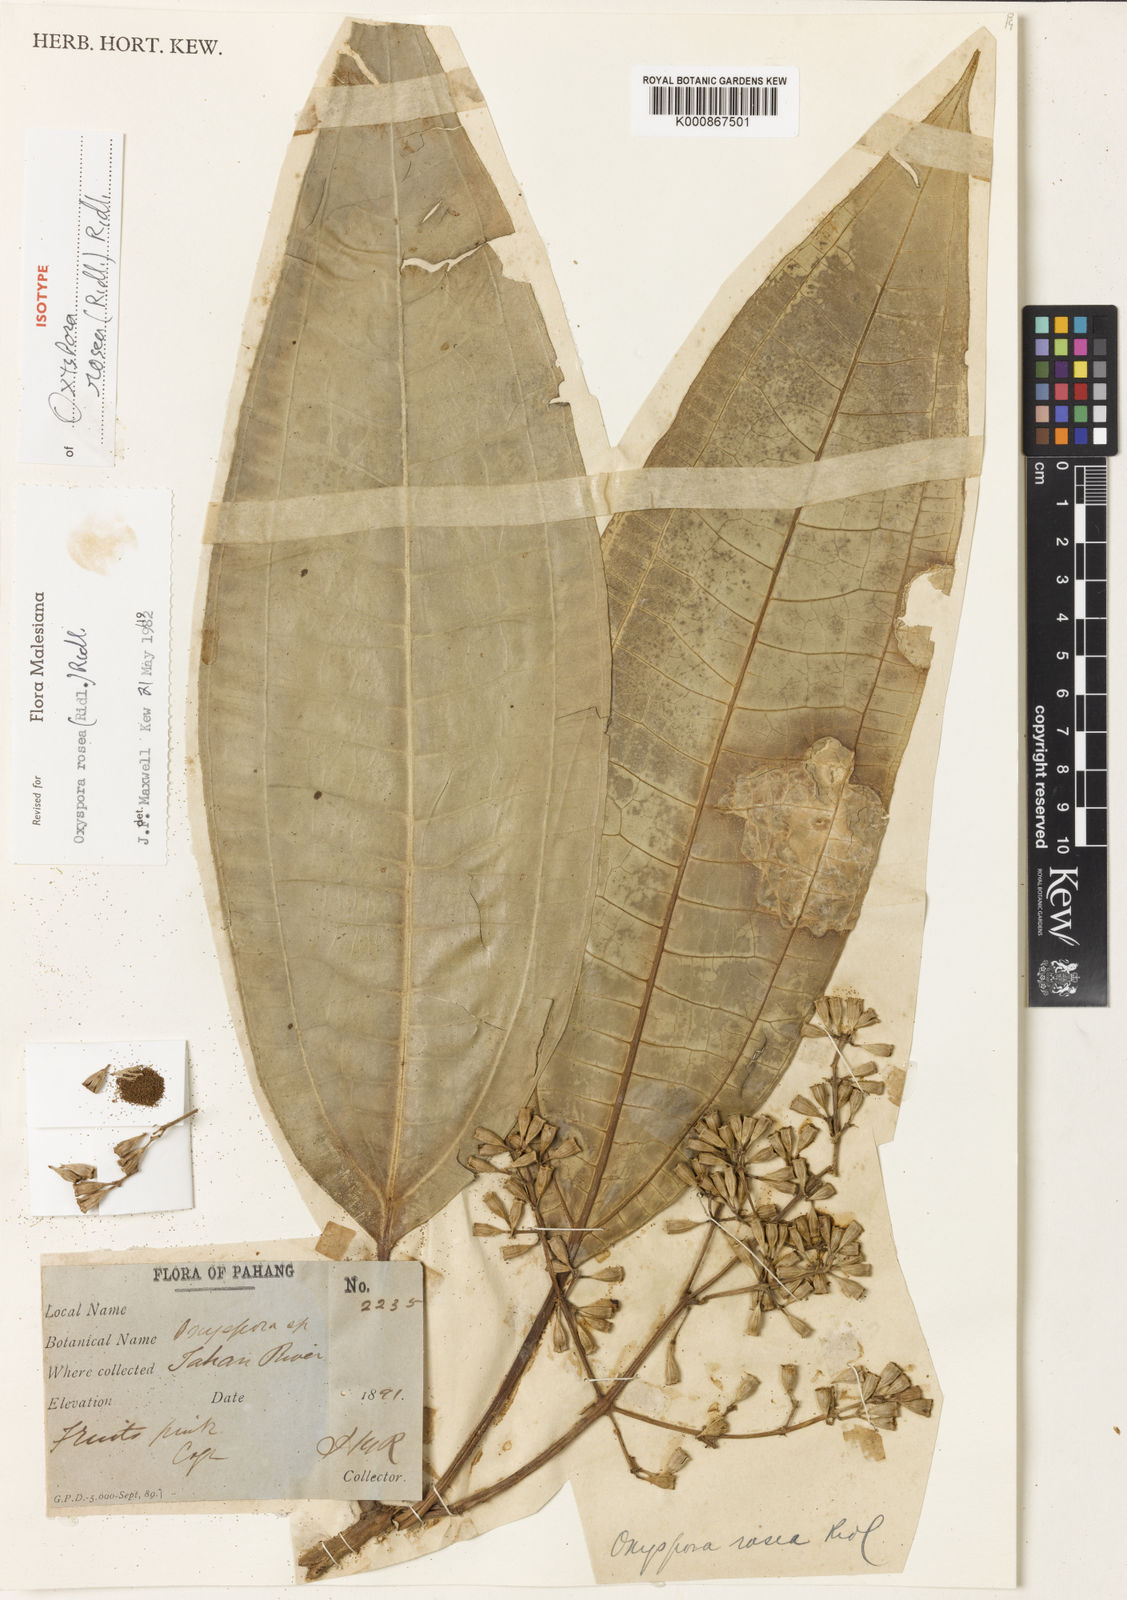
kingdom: Plantae
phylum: Tracheophyta
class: Magnoliopsida
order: Myrtales
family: Melastomataceae
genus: Allomorphia
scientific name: Allomorphia rosea
